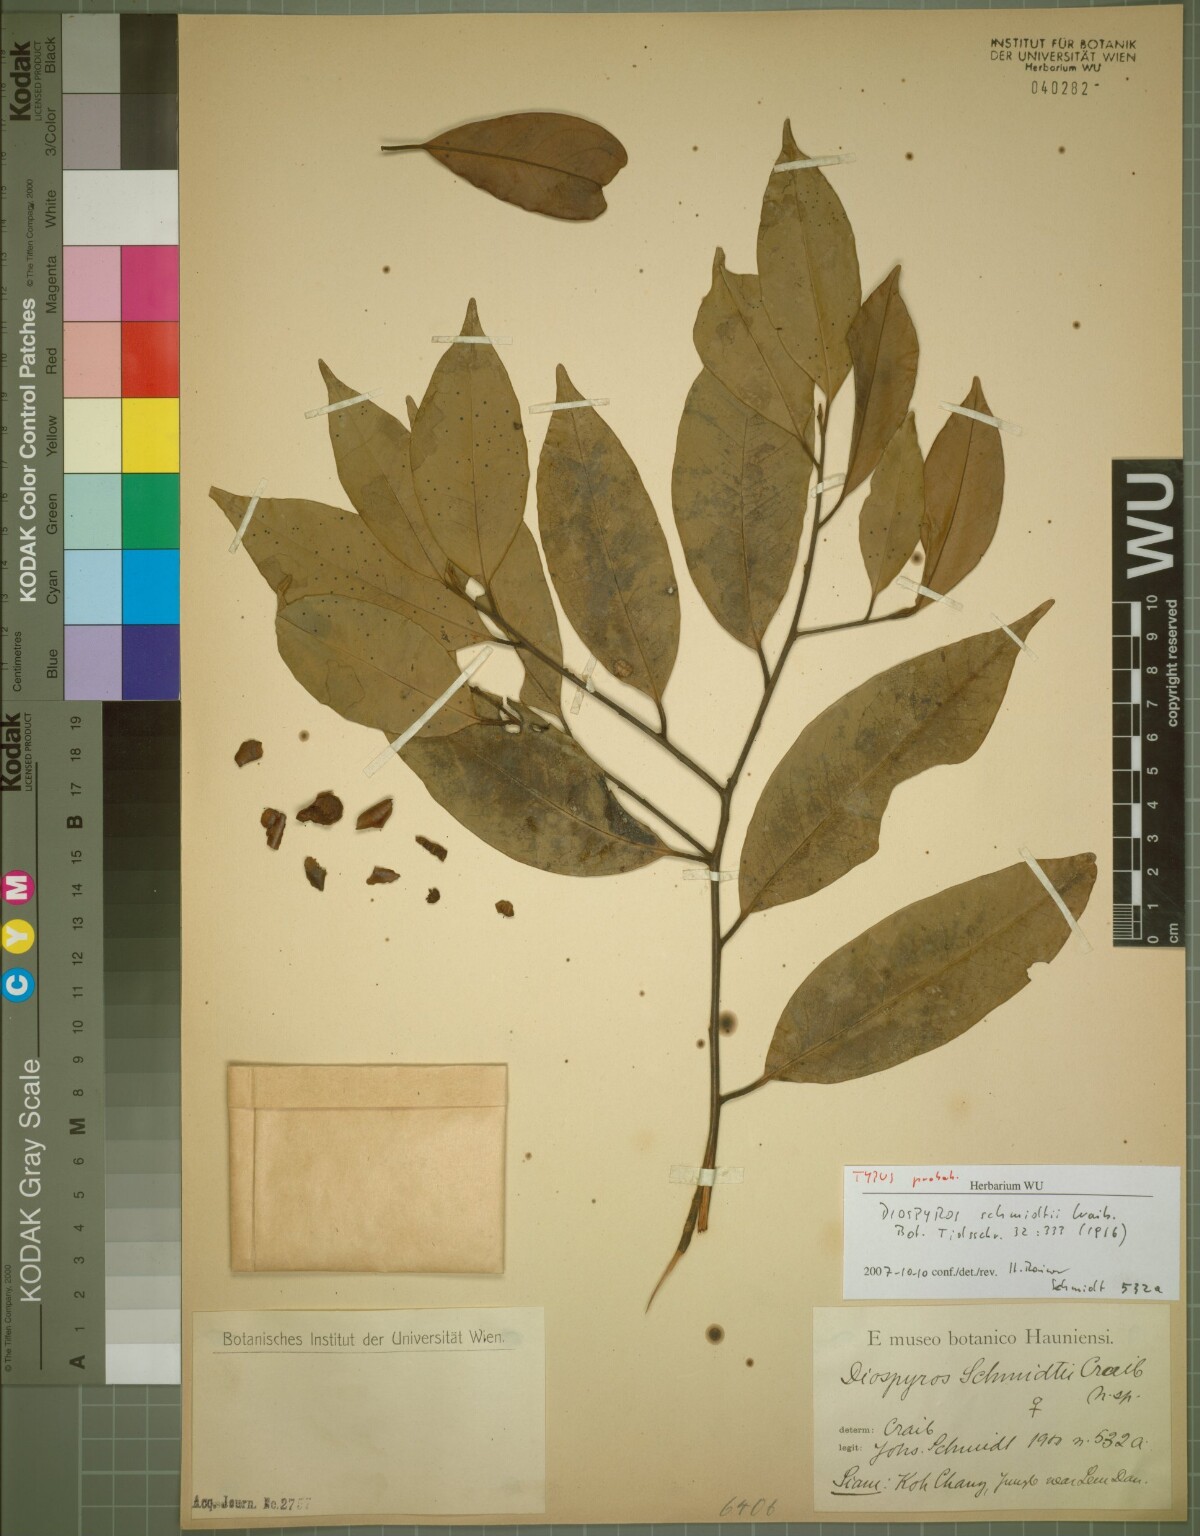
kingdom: Plantae
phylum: Tracheophyta
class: Magnoliopsida
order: Ericales
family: Ebenaceae
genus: Diospyros
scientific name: Diospyros schmidtii
